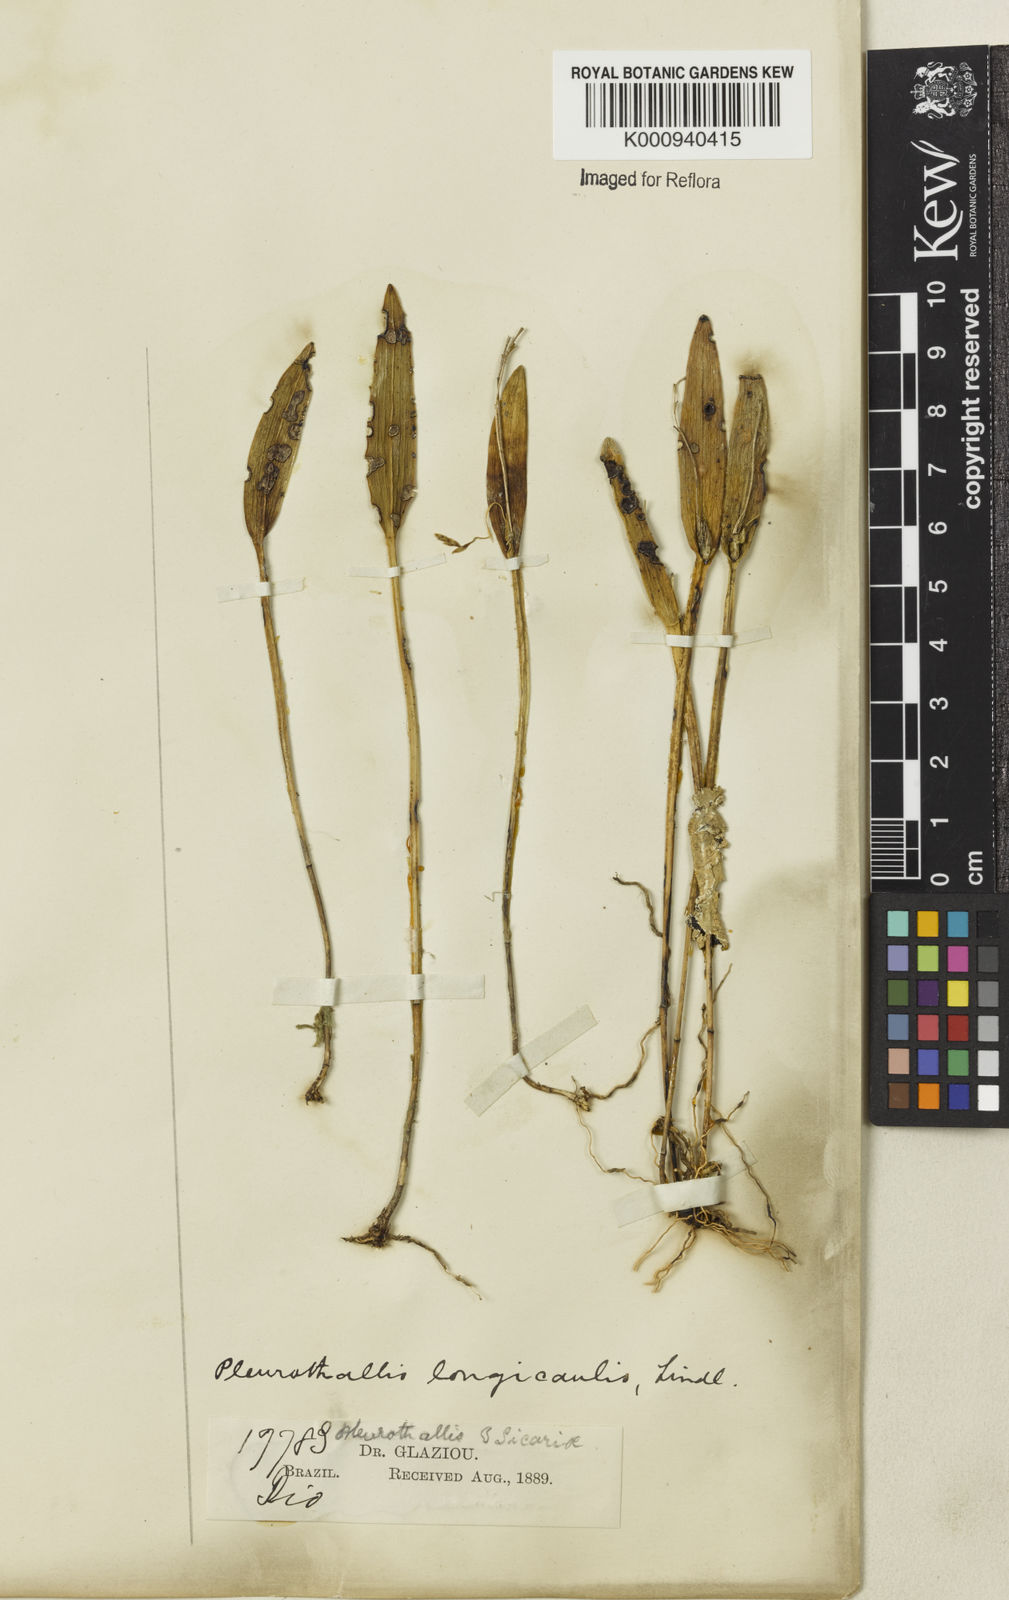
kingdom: Plantae
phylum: Tracheophyta
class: Liliopsida
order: Asparagales
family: Orchidaceae
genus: Acianthera
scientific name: Acianthera capillaris
